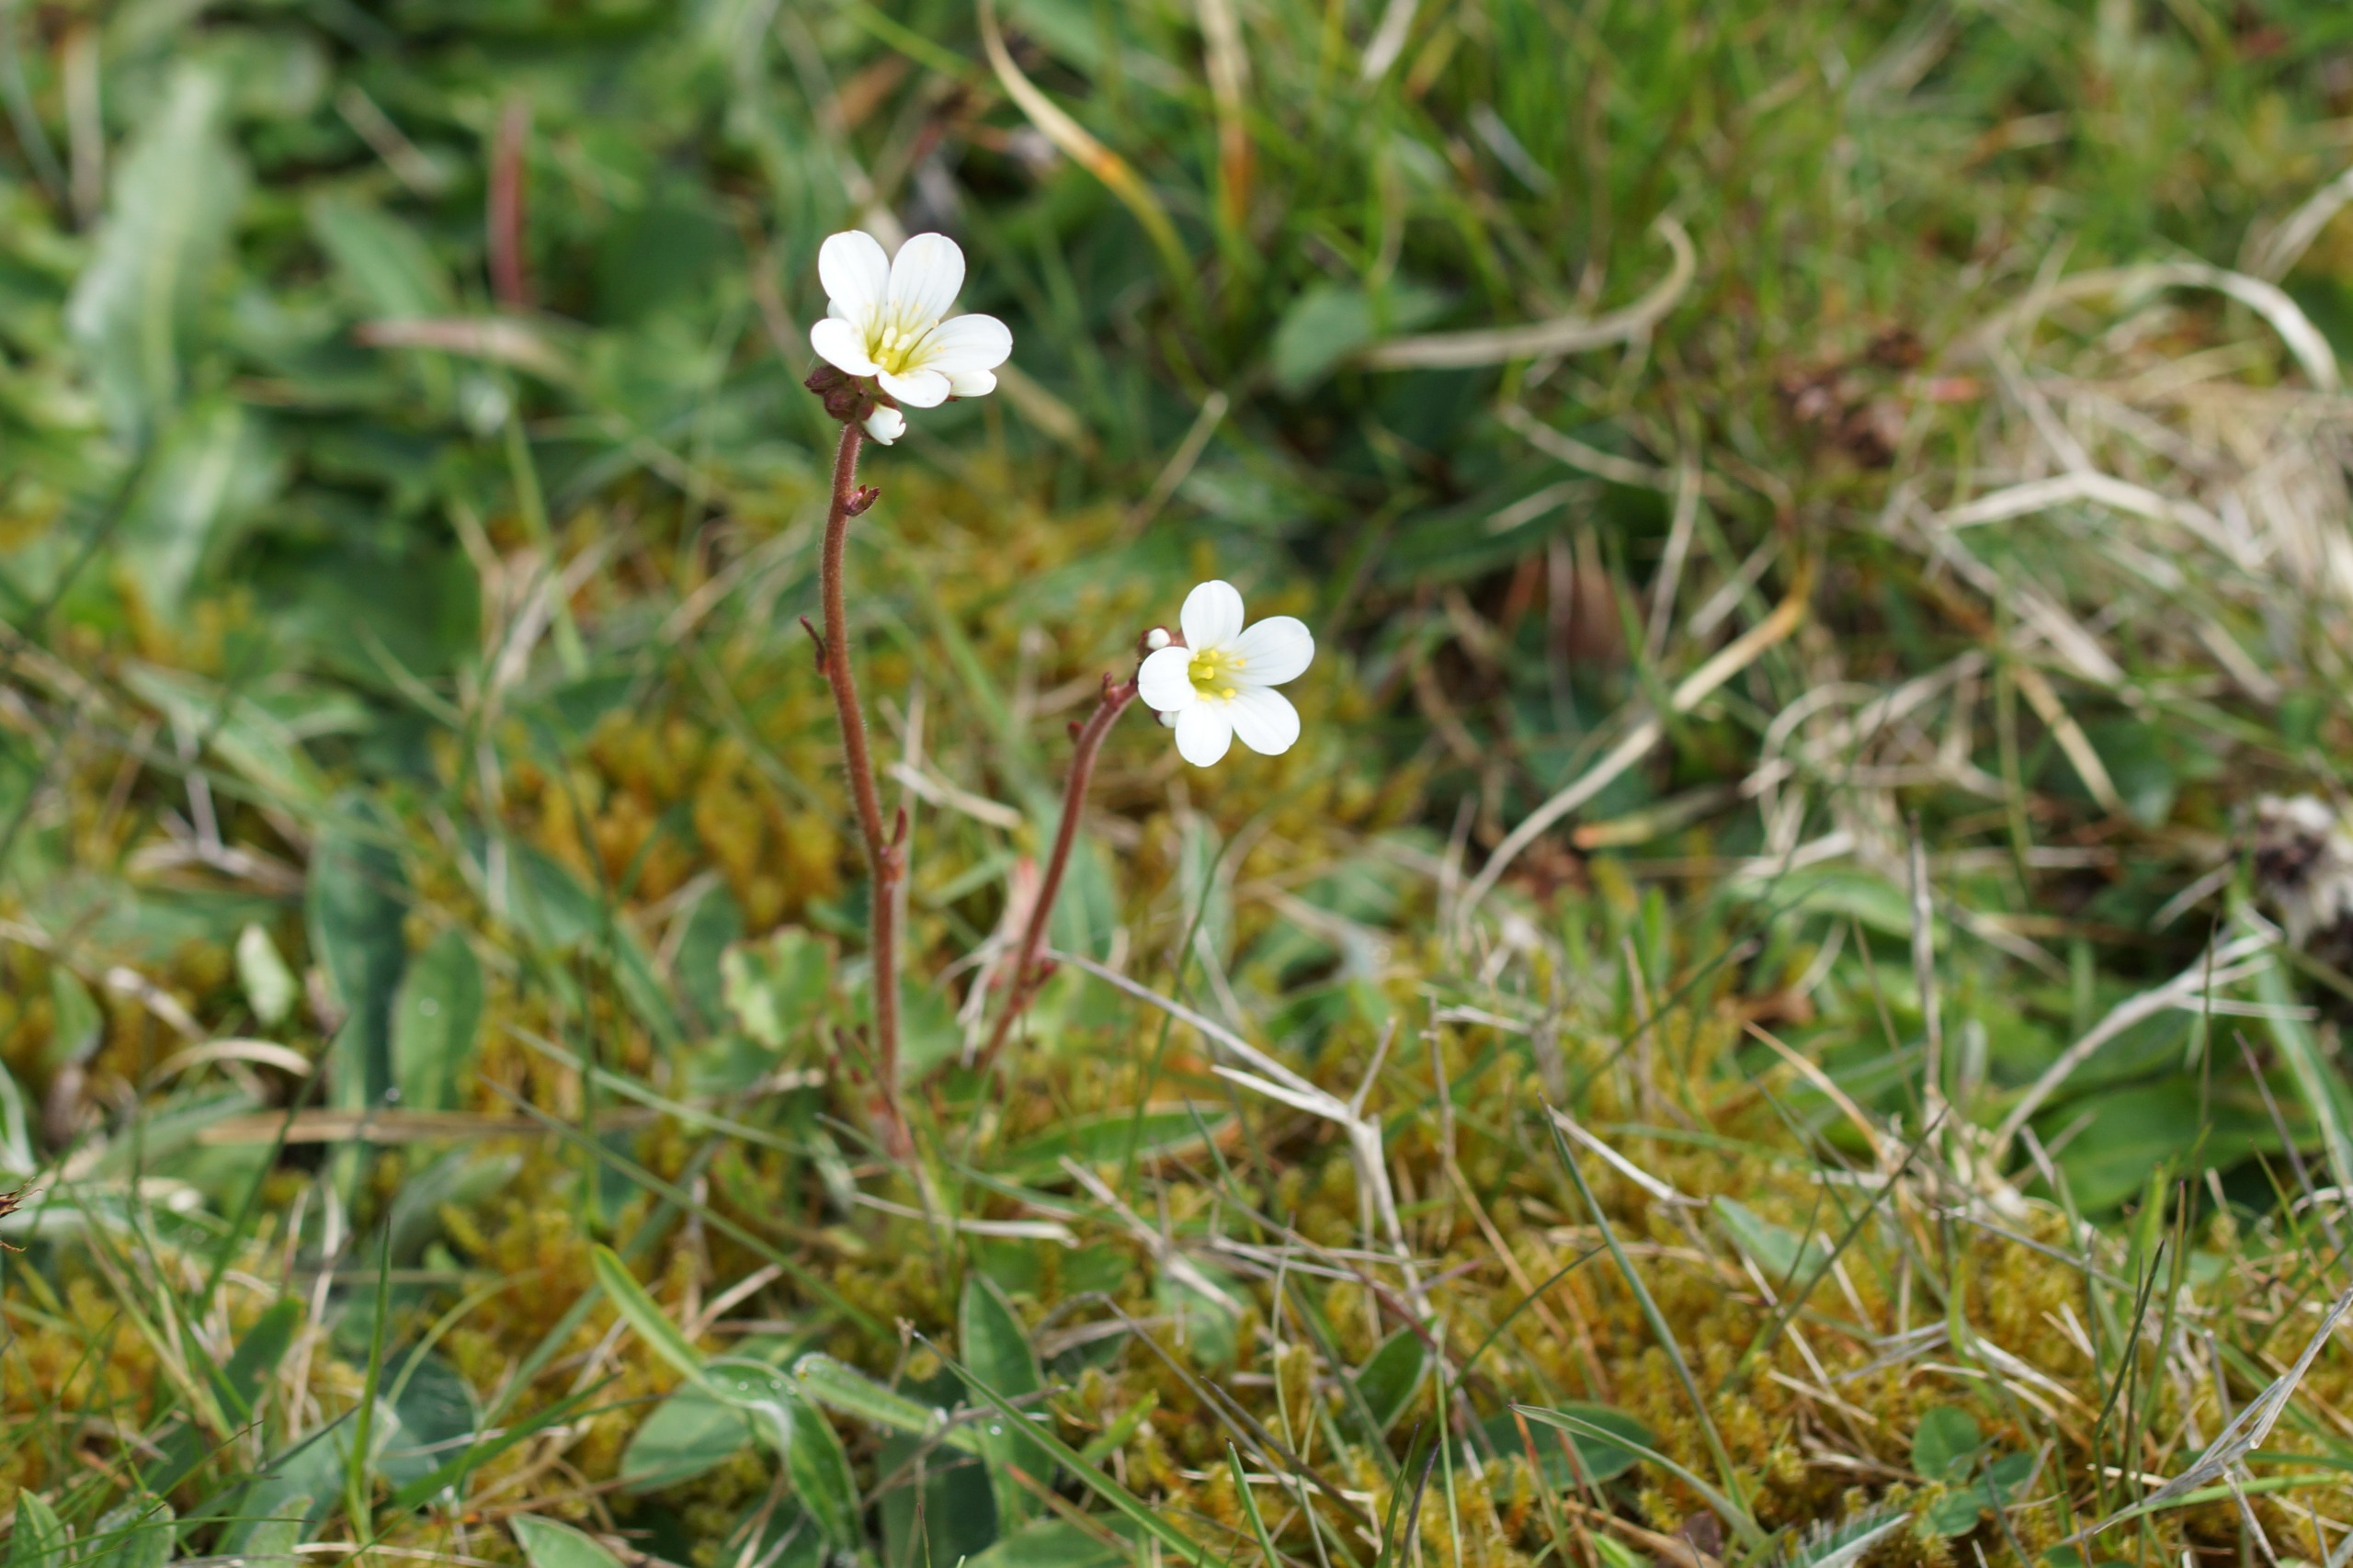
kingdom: Plantae
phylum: Tracheophyta
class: Magnoliopsida
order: Saxifragales
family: Saxifragaceae
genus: Saxifraga
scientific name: Saxifraga granulata
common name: Kornet stenbræk
